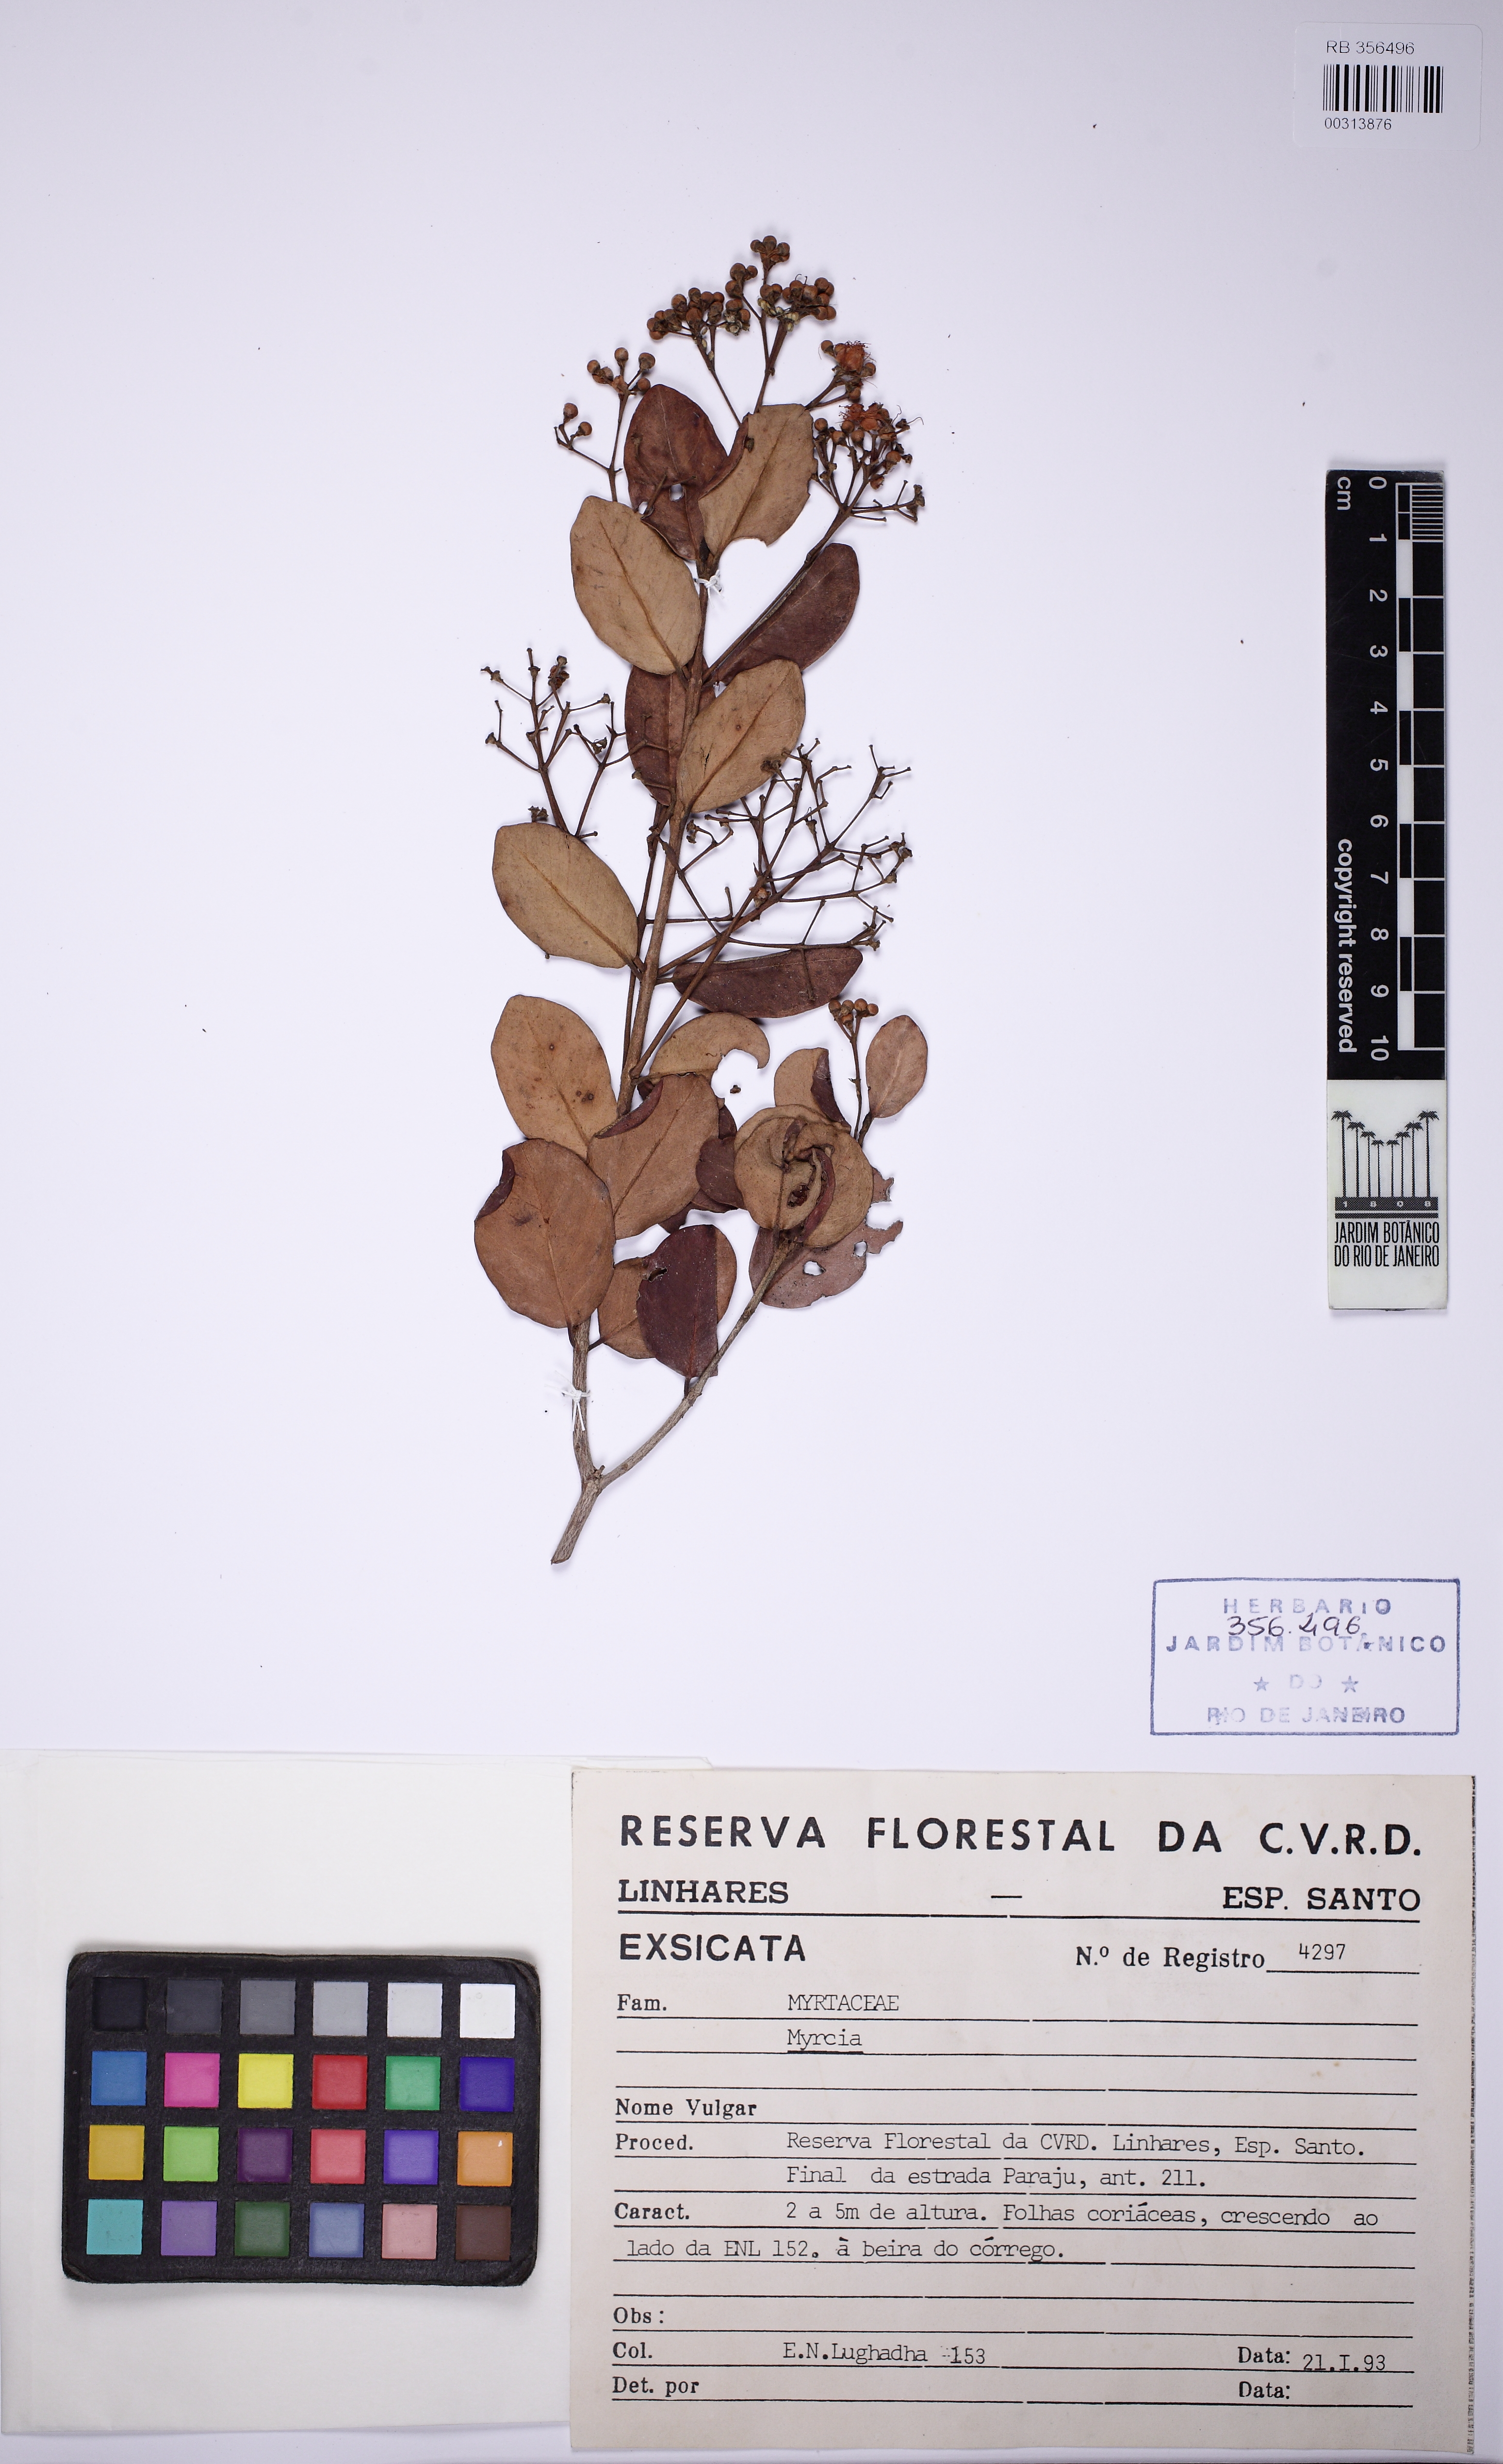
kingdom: Plantae
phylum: Tracheophyta
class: Magnoliopsida
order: Myrtales
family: Myrtaceae
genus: Myrcia
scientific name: Myrcia retorta
